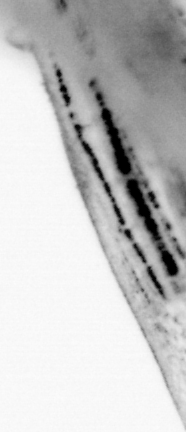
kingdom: Animalia
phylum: Chordata
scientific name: Chordata
